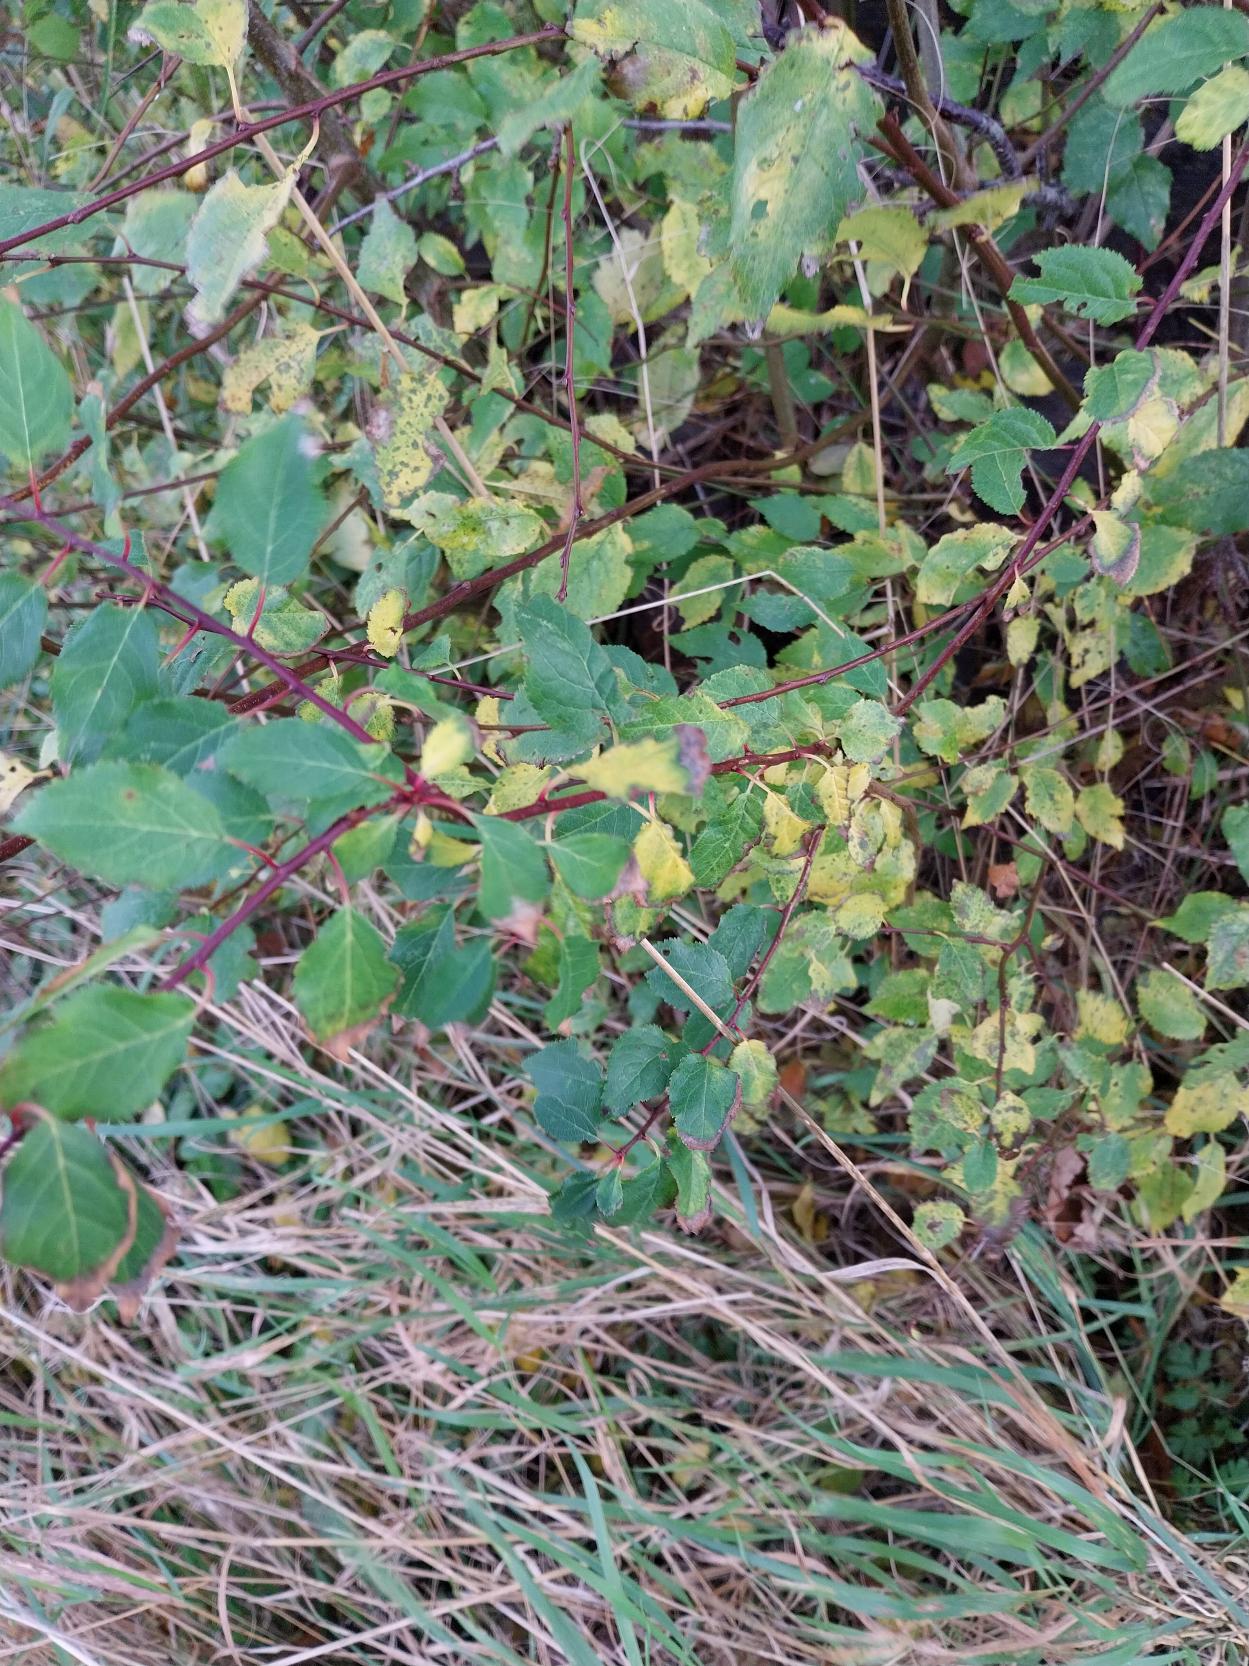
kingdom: Plantae
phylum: Tracheophyta
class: Magnoliopsida
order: Rosales
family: Rosaceae
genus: Prunus
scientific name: Prunus cerasifera
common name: Mirabel
